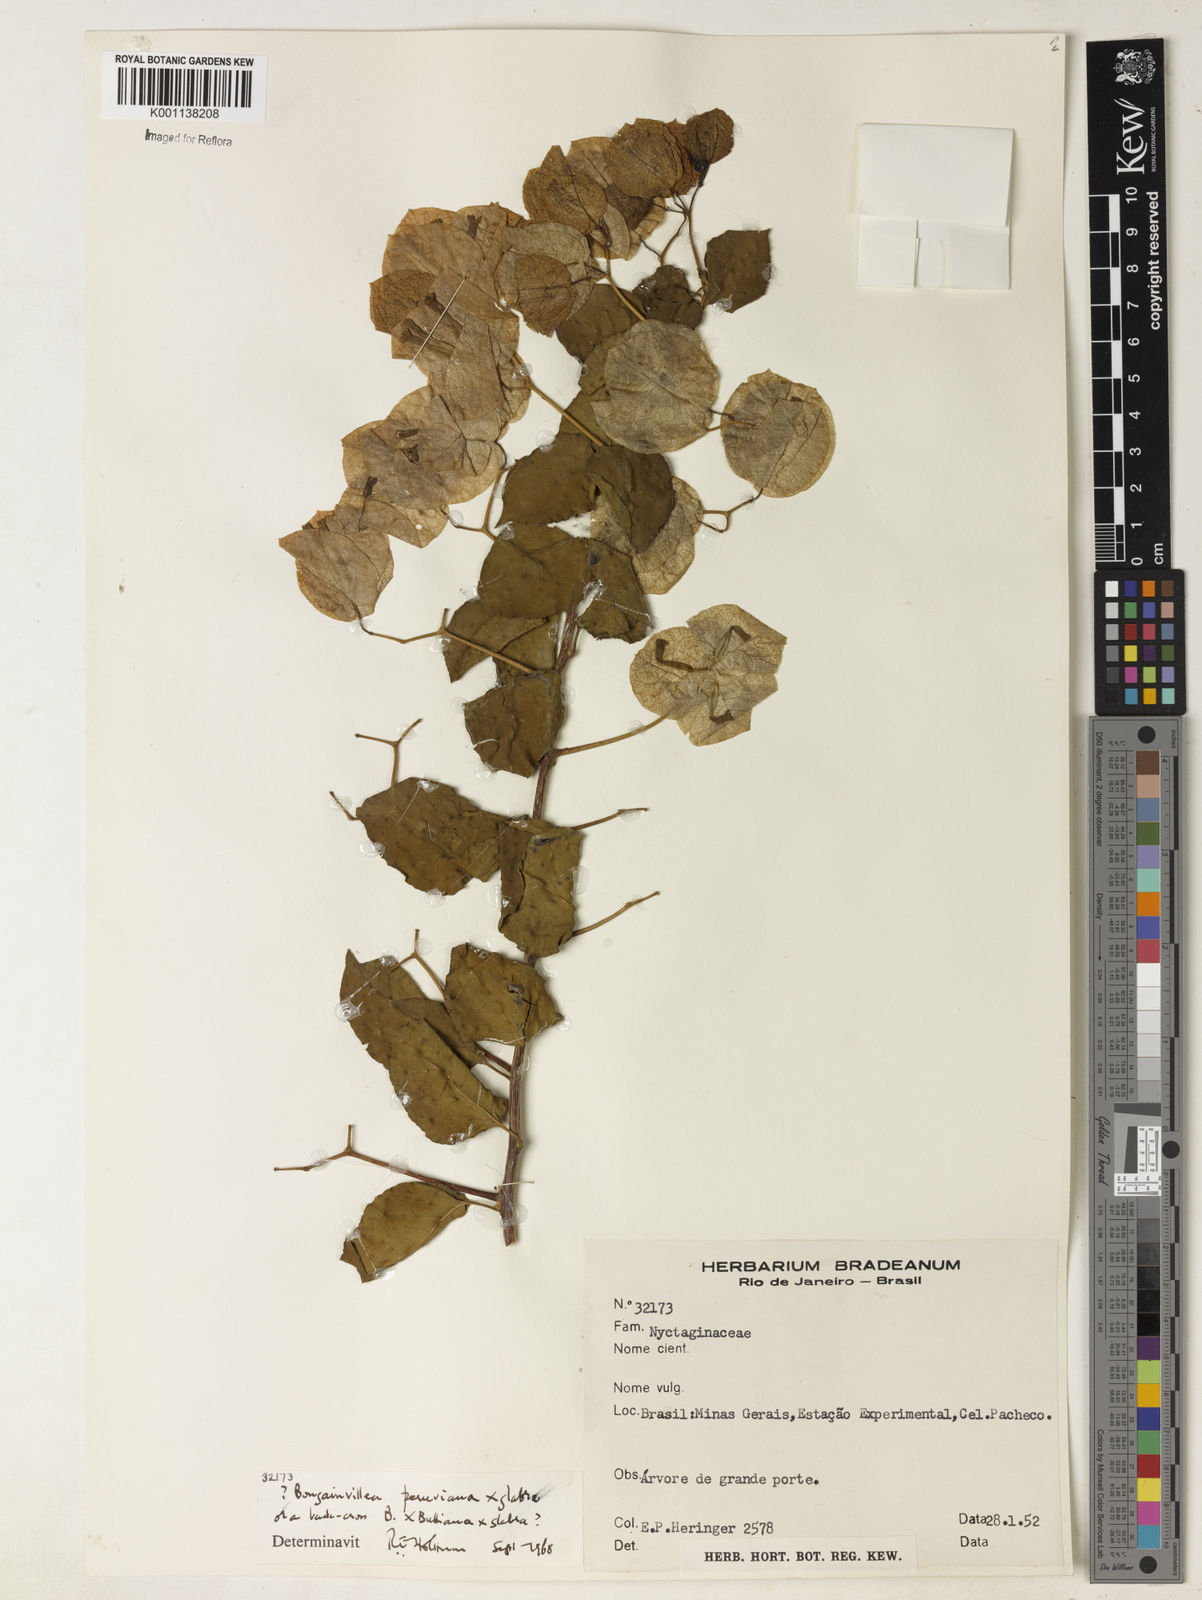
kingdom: Plantae
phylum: Tracheophyta
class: Magnoliopsida
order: Caryophyllales
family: Nyctaginaceae
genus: Bougainvillea
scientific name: Bougainvillea peruviana
